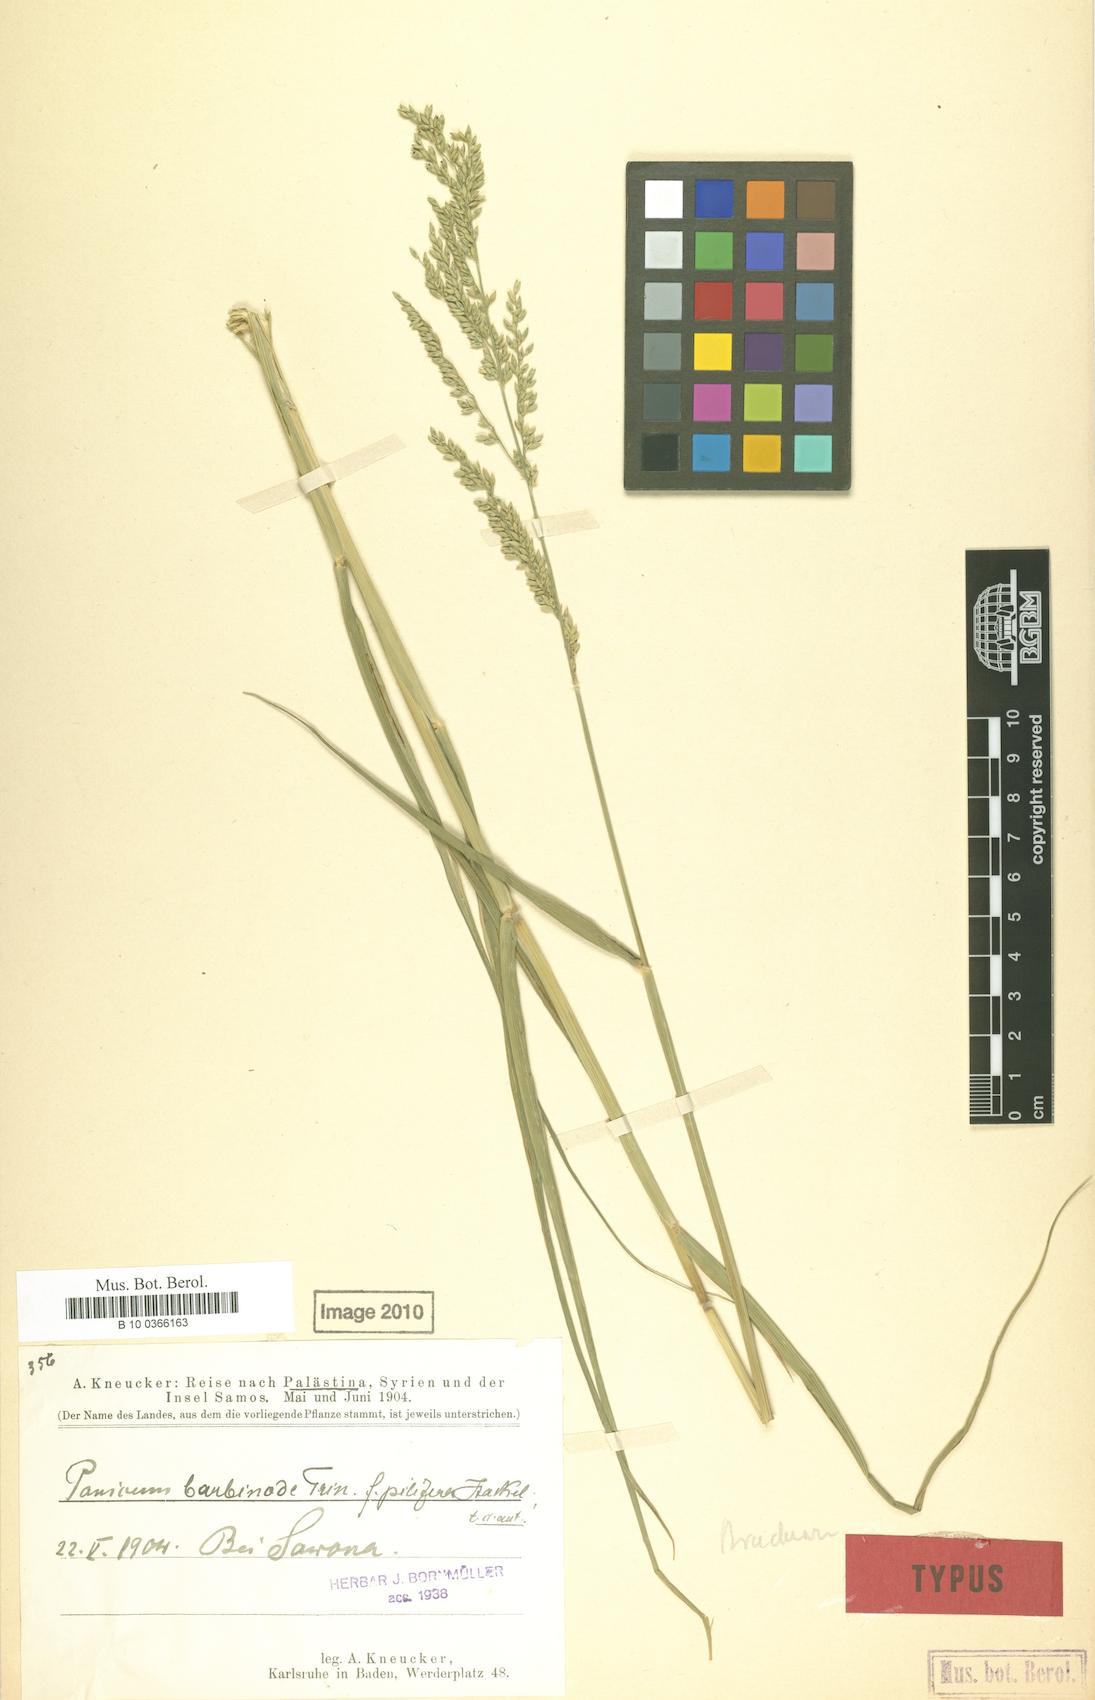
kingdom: Plantae
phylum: Tracheophyta
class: Liliopsida
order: Poales
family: Poaceae
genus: Urochloa
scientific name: Urochloa mutica
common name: Para grass
